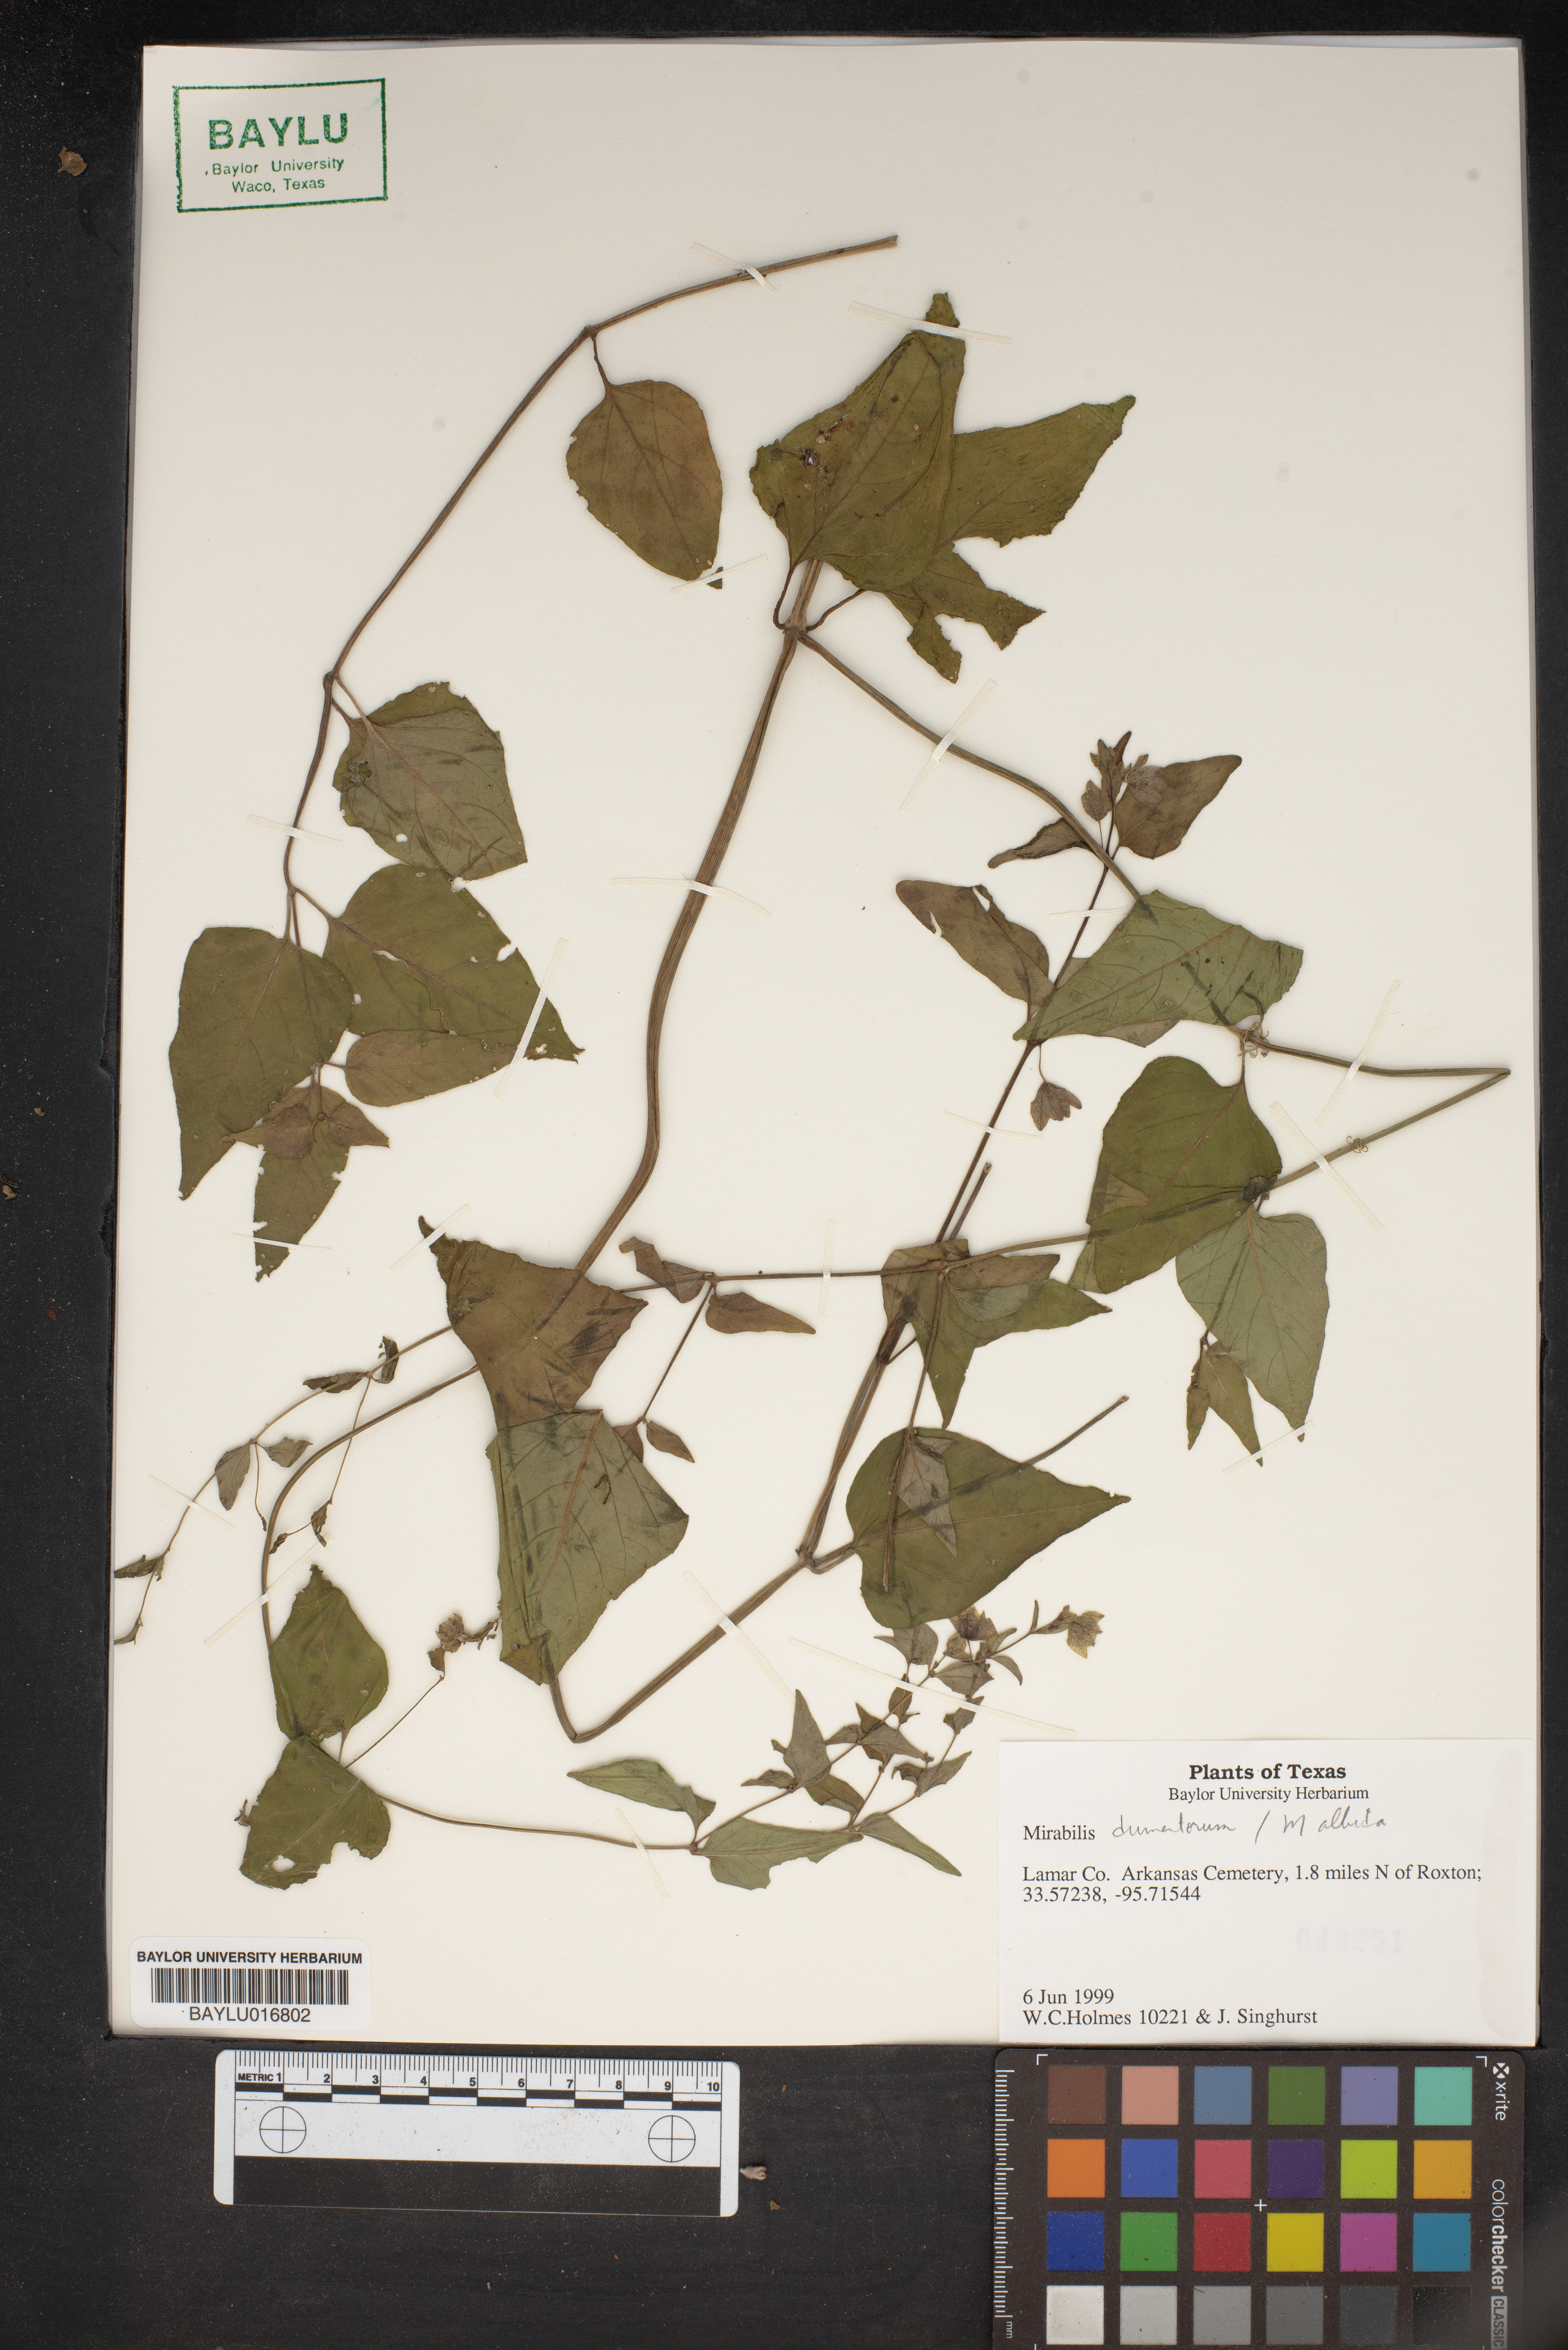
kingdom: Plantae
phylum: Tracheophyta
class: Magnoliopsida
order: Caryophyllales
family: Nyctaginaceae
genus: Mirabilis
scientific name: Mirabilis albida
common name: Hairy four-o'clock
